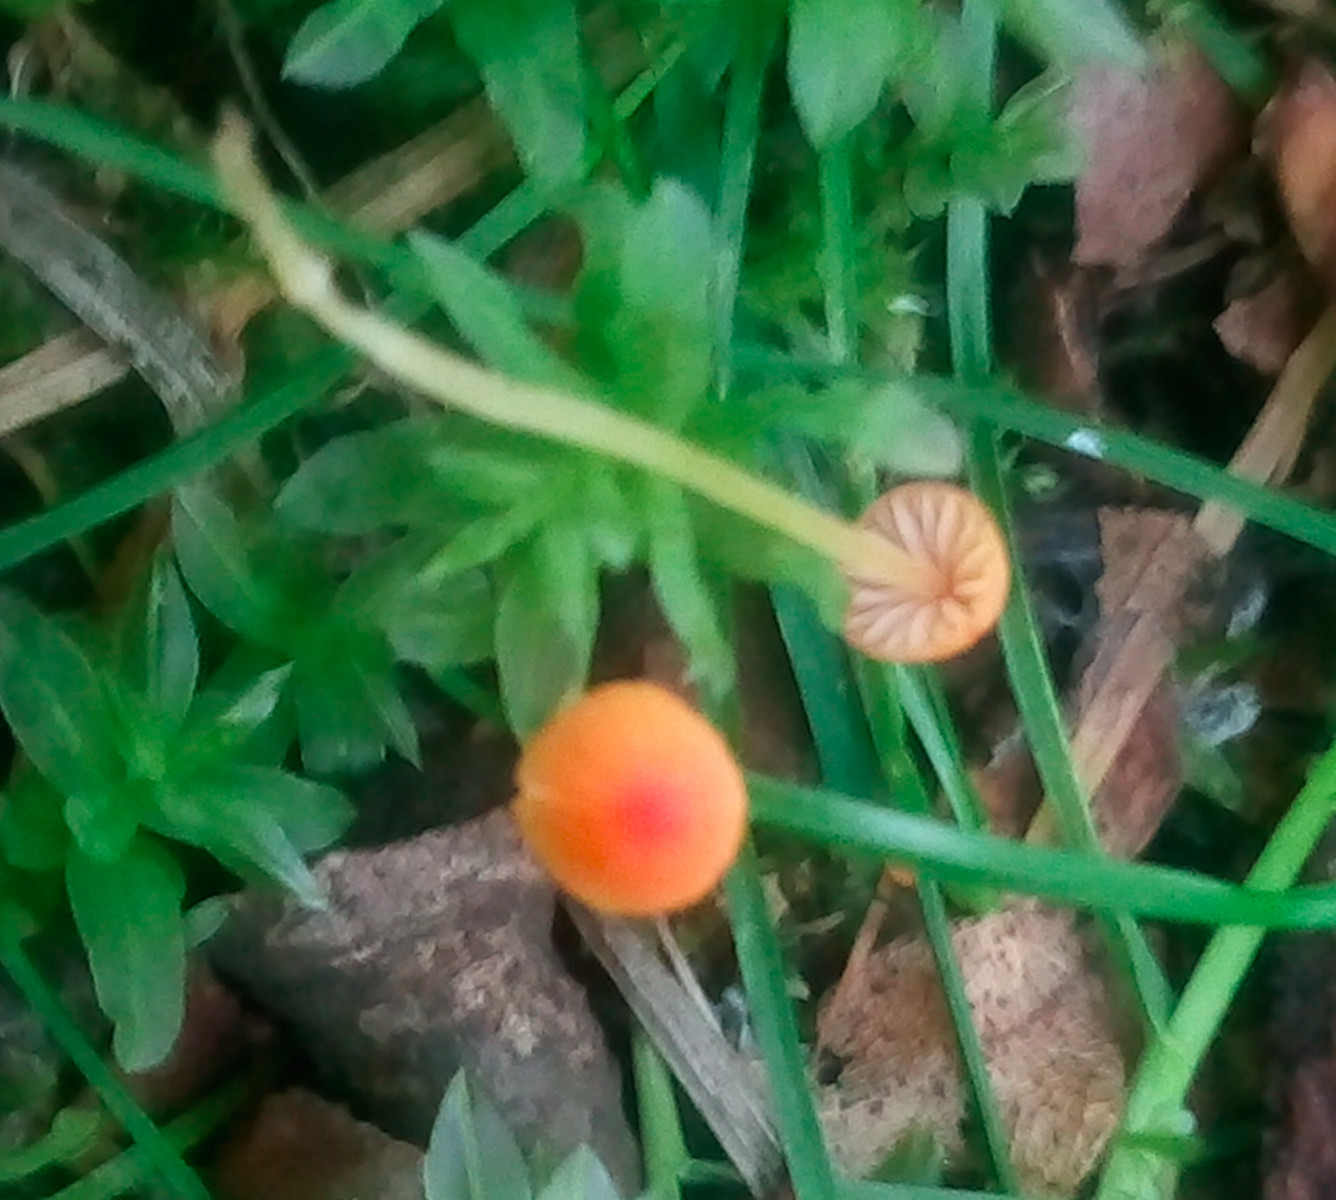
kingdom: Fungi
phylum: Basidiomycota
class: Agaricomycetes
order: Agaricales
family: Mycenaceae
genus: Mycena
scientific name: Mycena acicula
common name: orange huesvamp
